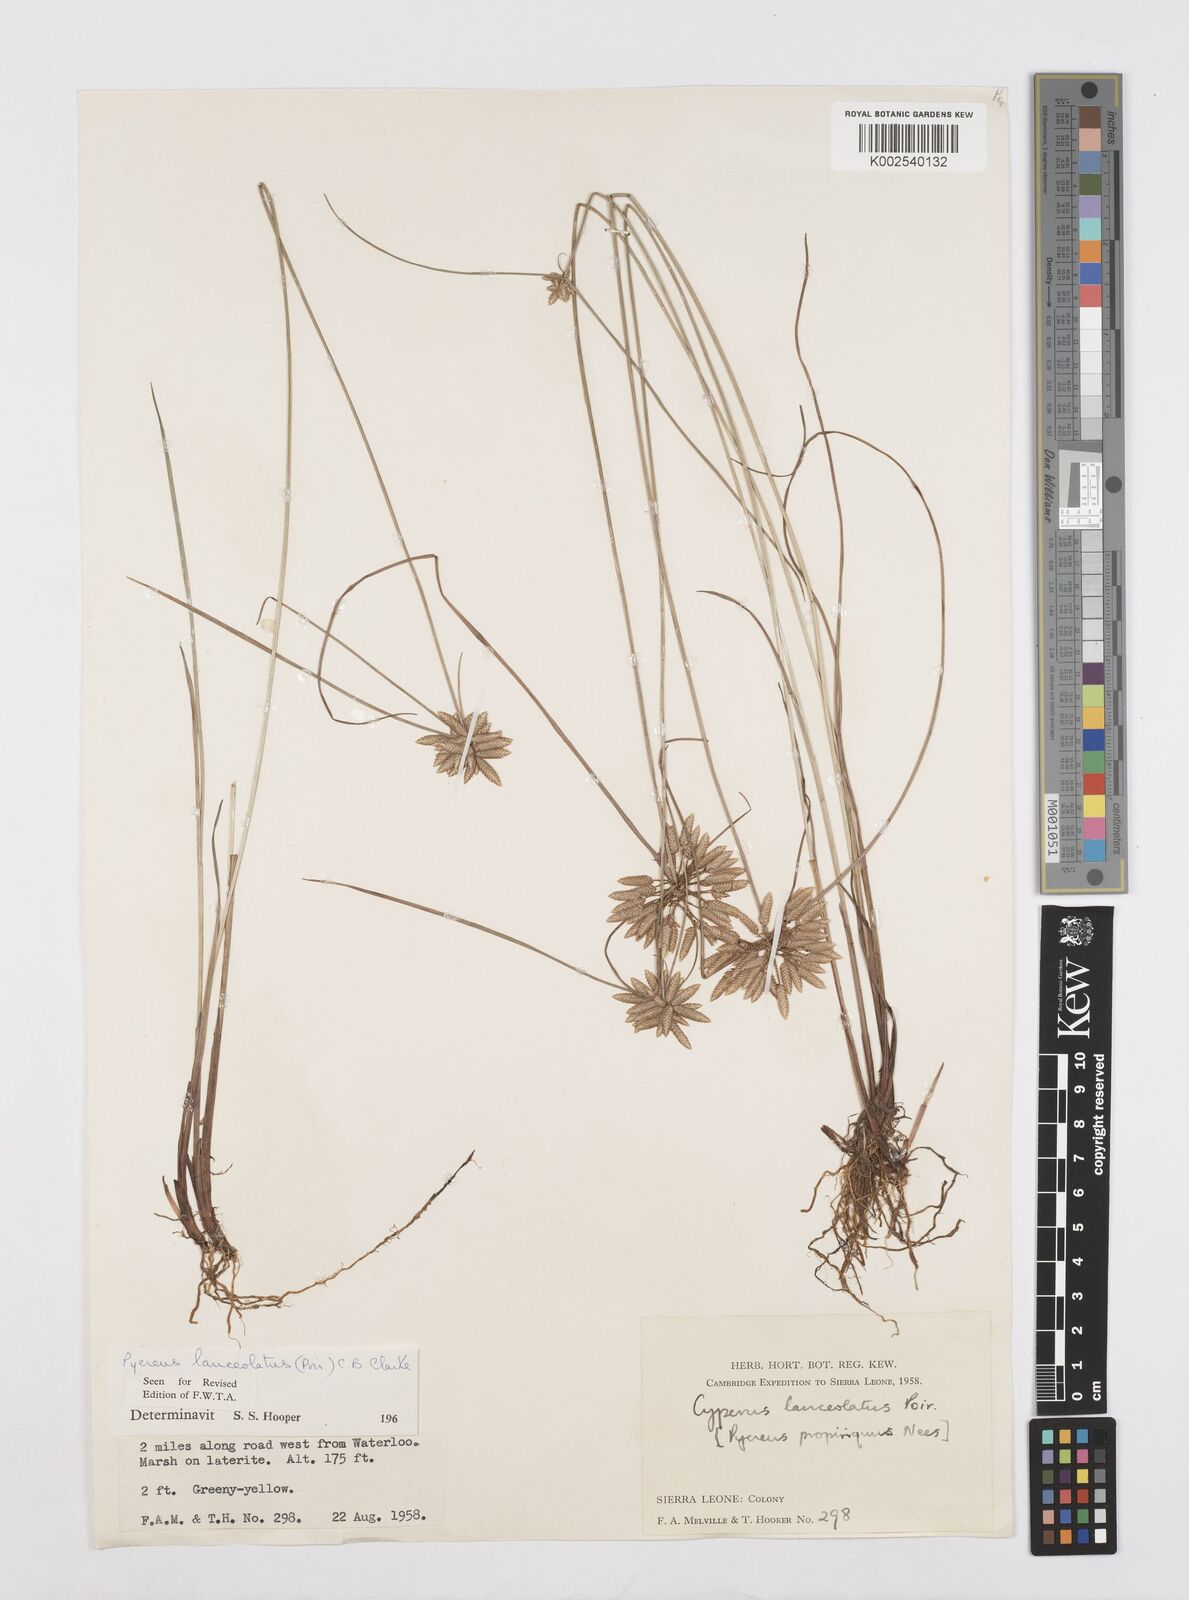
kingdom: Plantae
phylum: Tracheophyta
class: Liliopsida
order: Poales
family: Cyperaceae
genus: Cyperus
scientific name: Cyperus
